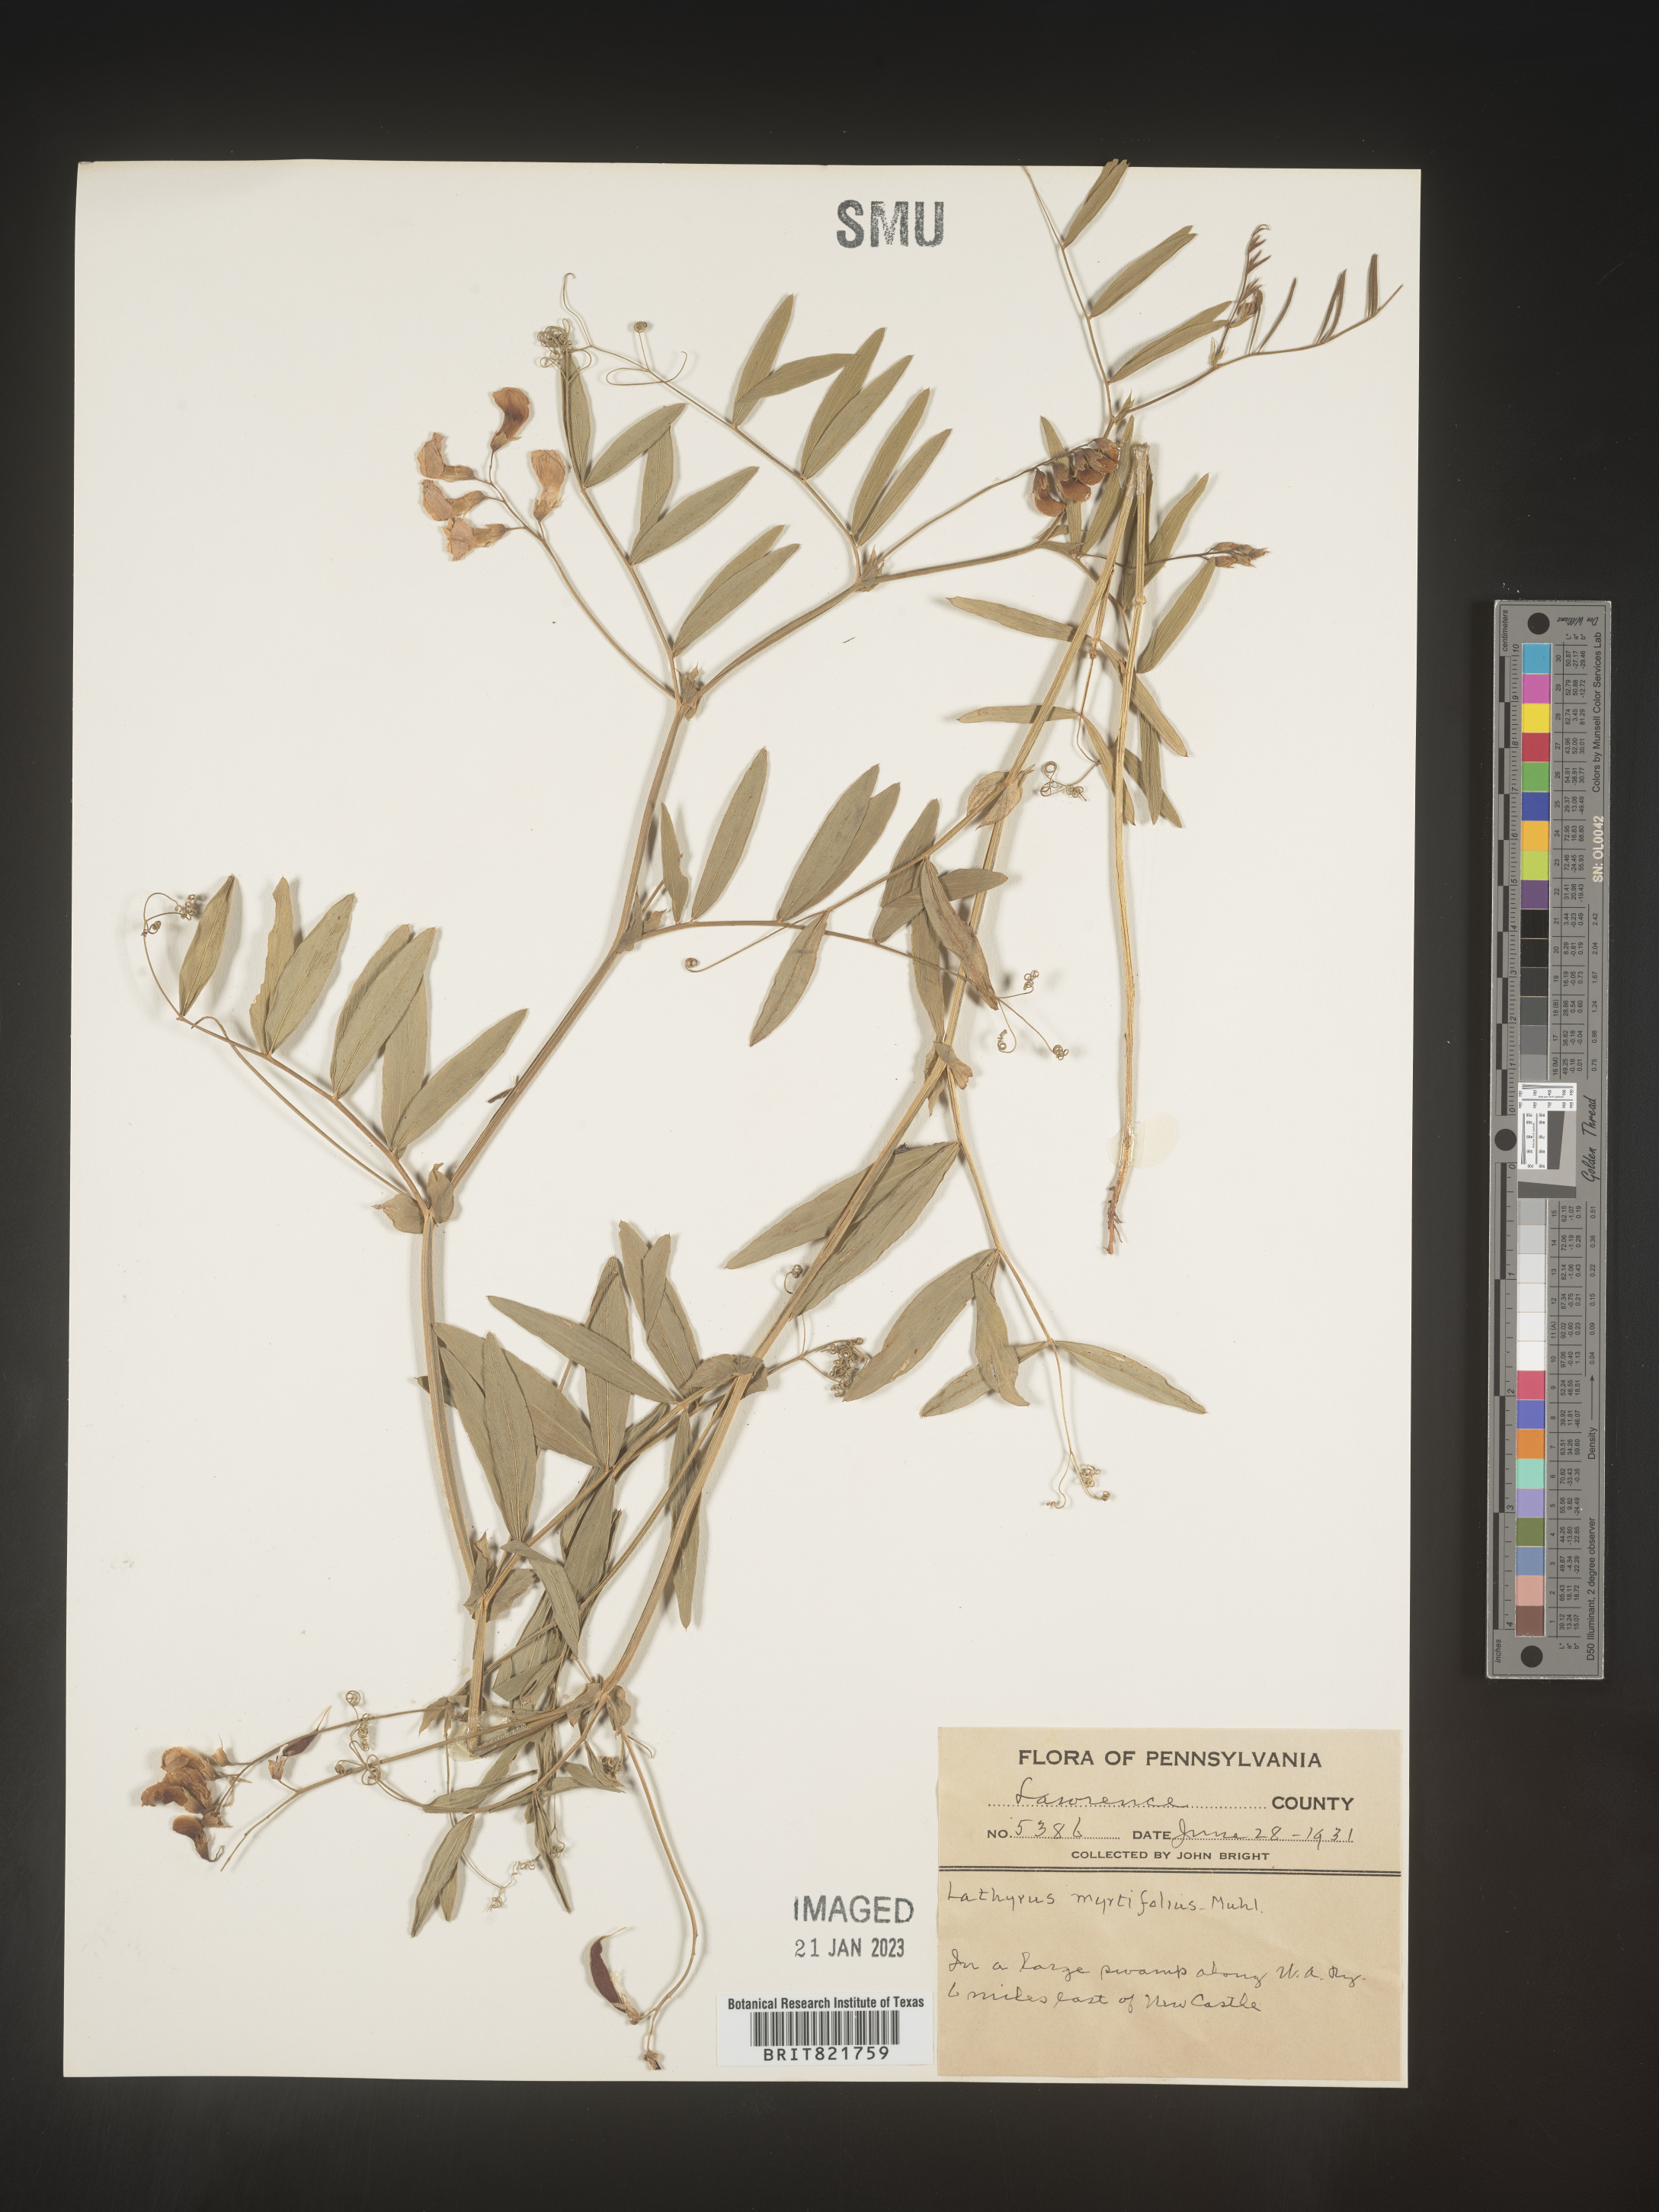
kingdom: Plantae
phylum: Tracheophyta
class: Magnoliopsida
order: Fabales
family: Fabaceae
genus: Lathyrus
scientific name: Lathyrus palustris
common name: Marsh pea
